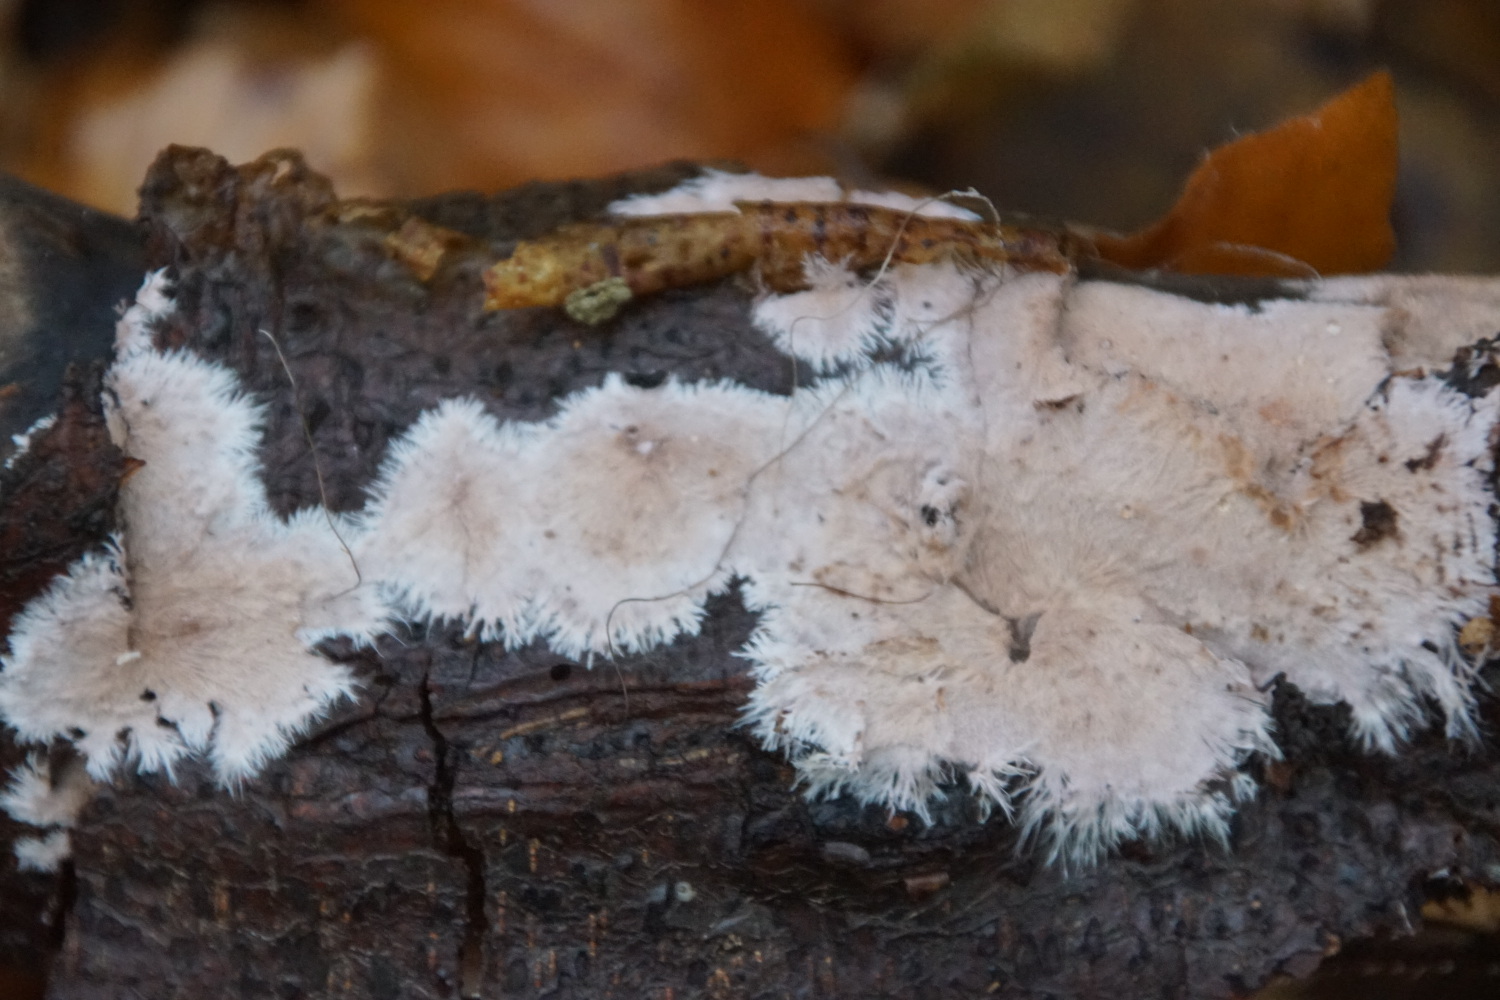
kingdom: Fungi
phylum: Basidiomycota
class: Agaricomycetes
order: Polyporales
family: Steccherinaceae
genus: Steccherinum
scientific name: Steccherinum fimbriatum
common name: trådet skønpig
